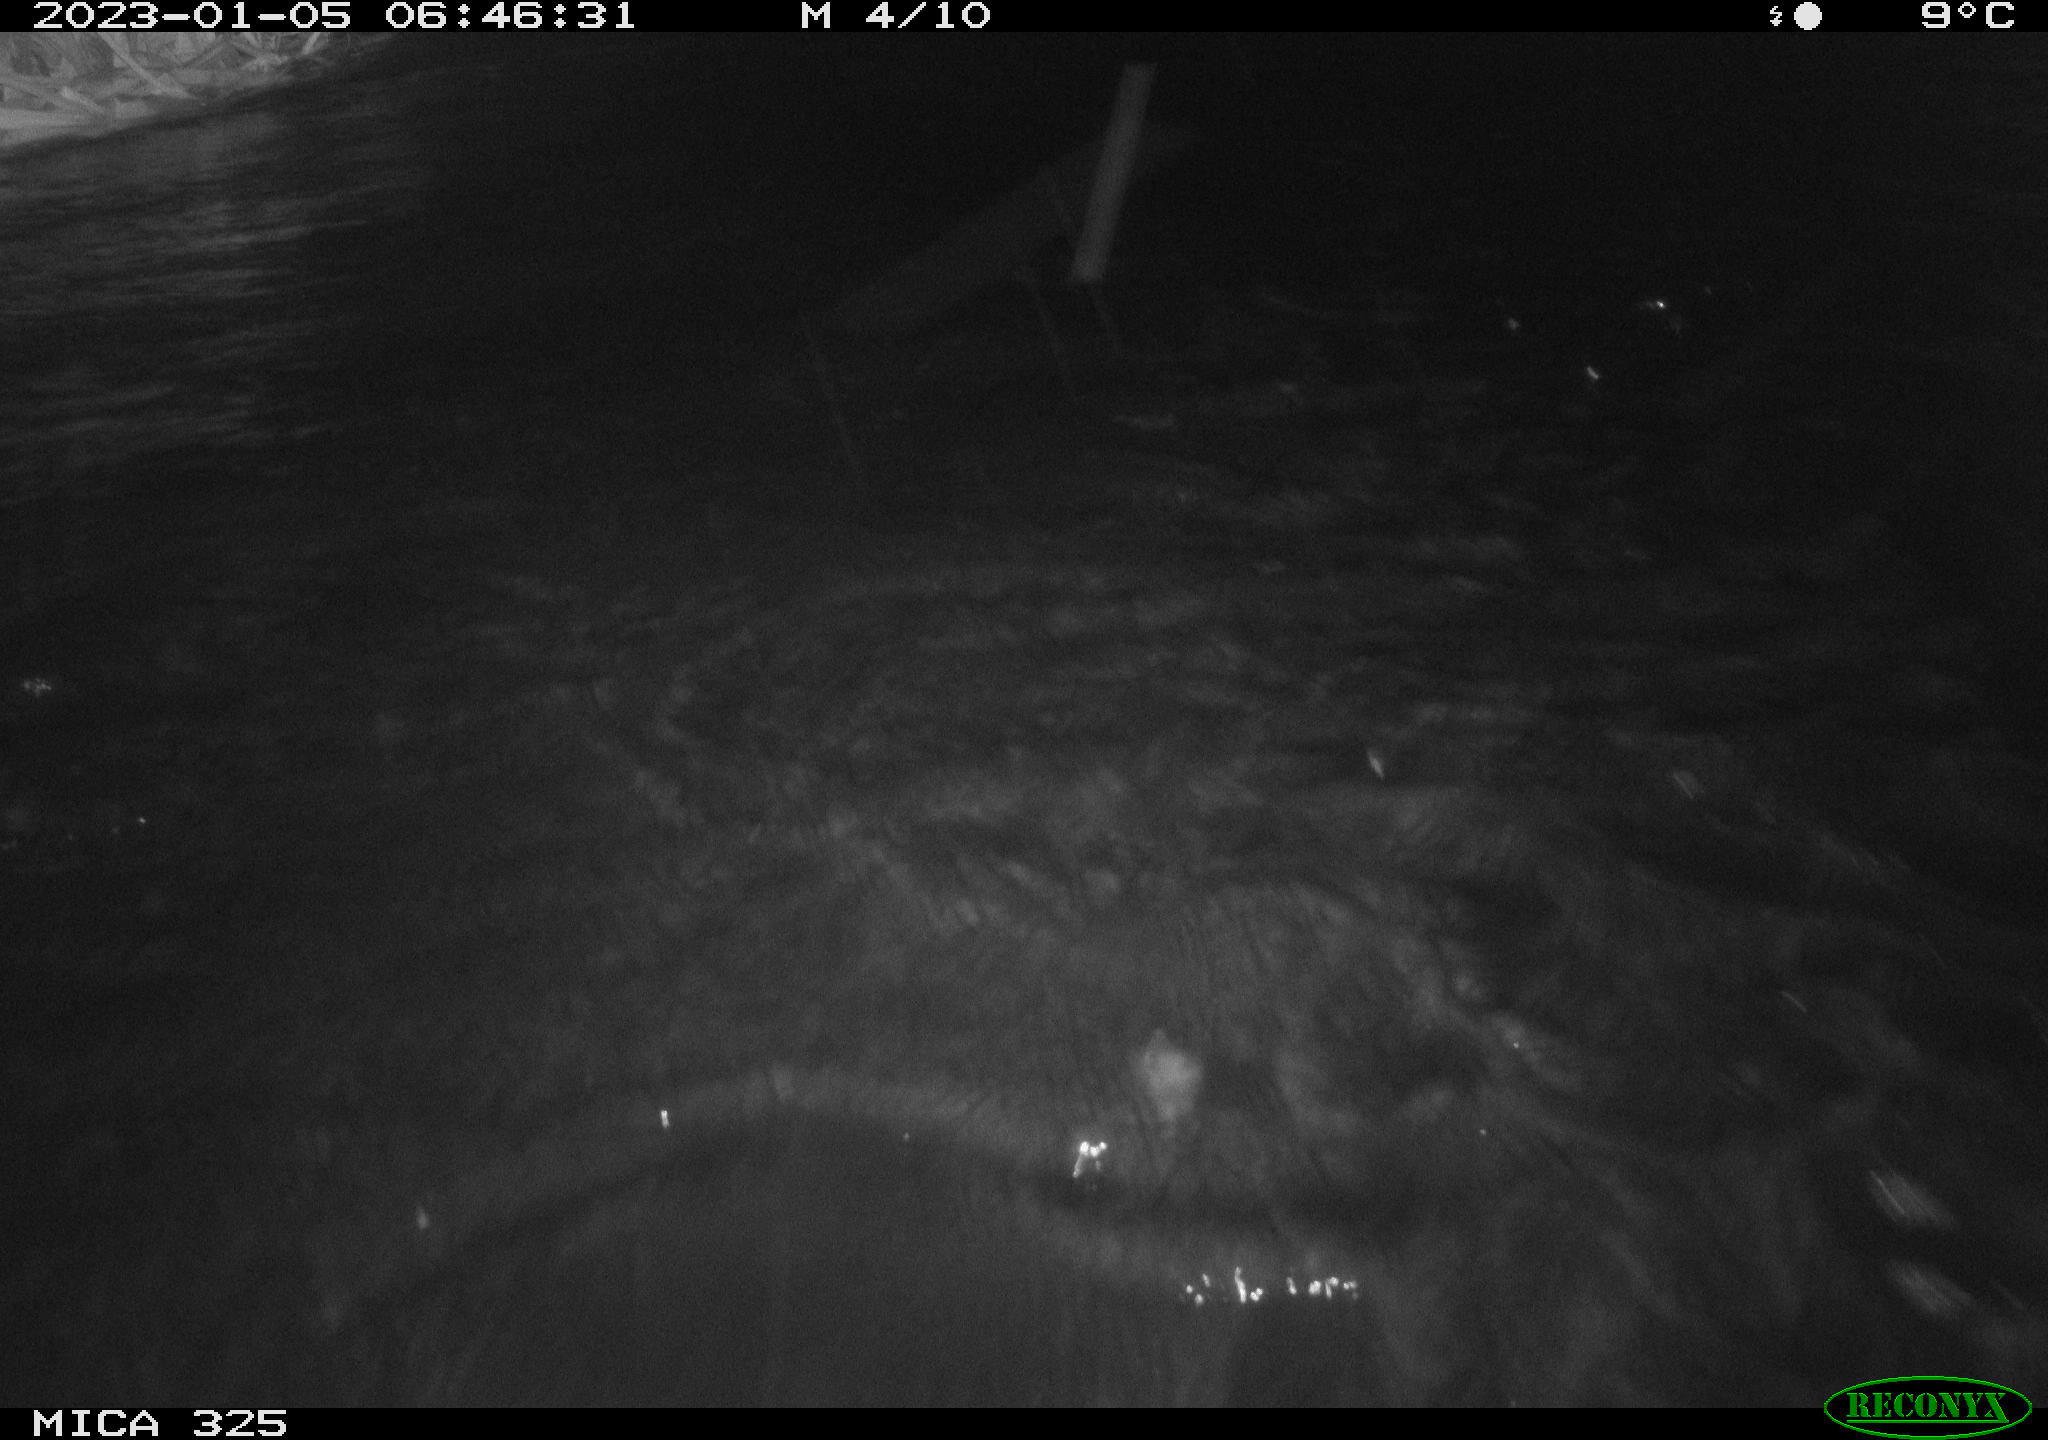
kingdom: Animalia
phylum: Chordata
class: Mammalia
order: Rodentia
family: Cricetidae
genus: Ondatra
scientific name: Ondatra zibethicus
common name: Muskrat
